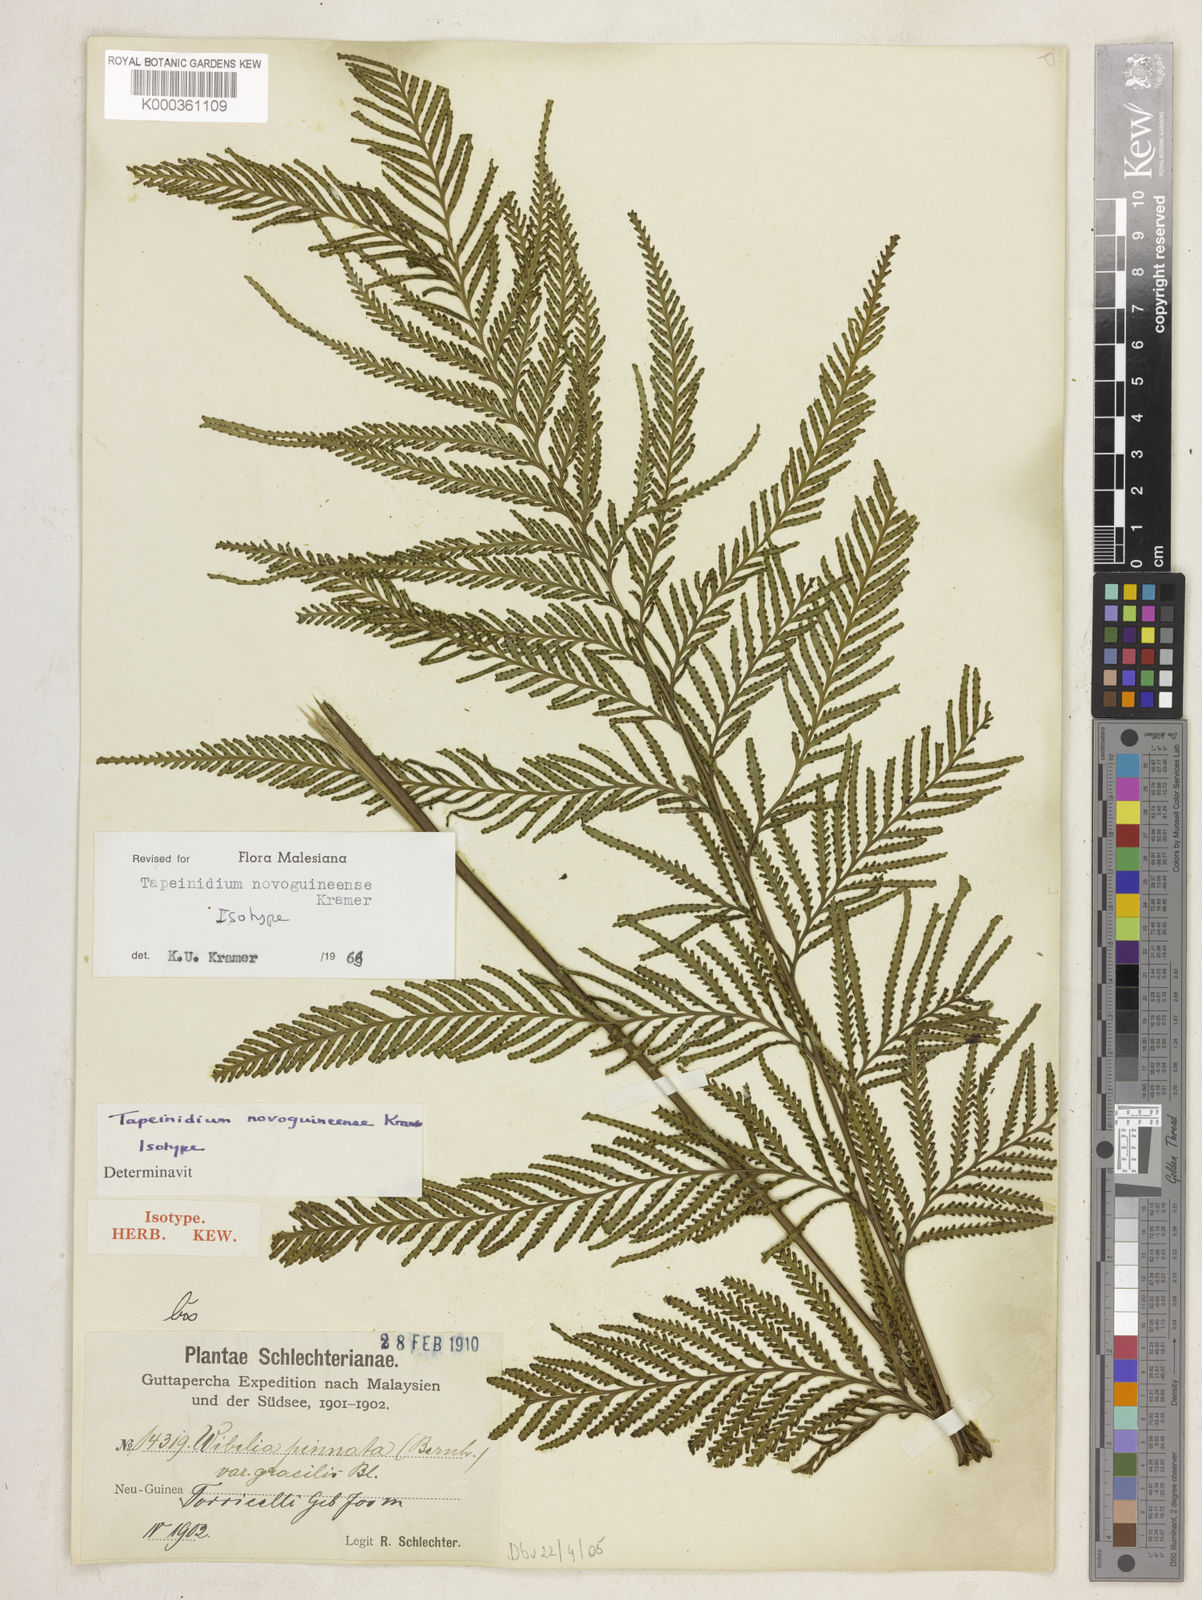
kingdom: Plantae
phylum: Tracheophyta
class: Polypodiopsida
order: Polypodiales
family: Lindsaeaceae
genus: Tapeinidium
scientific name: Tapeinidium novoguineense
